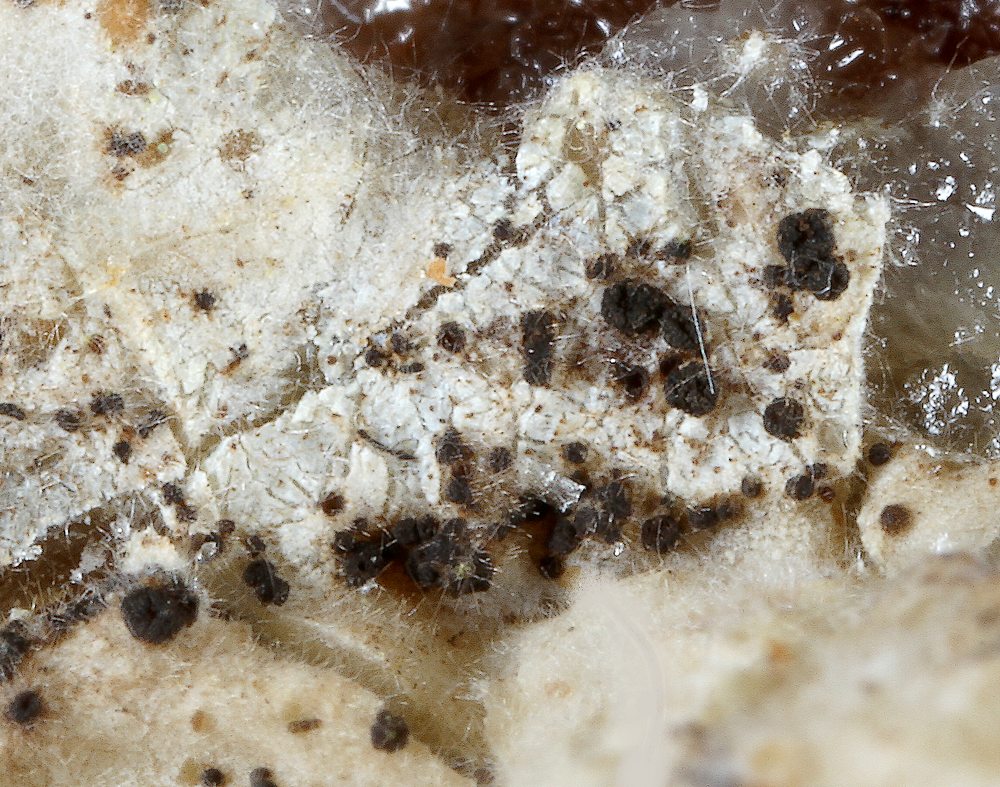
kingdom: Fungi
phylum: Ascomycota
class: Sareomycetes
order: Sareales
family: Sareaceae
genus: Sarea
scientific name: Sarea difformis
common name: mørk harpiksskive
